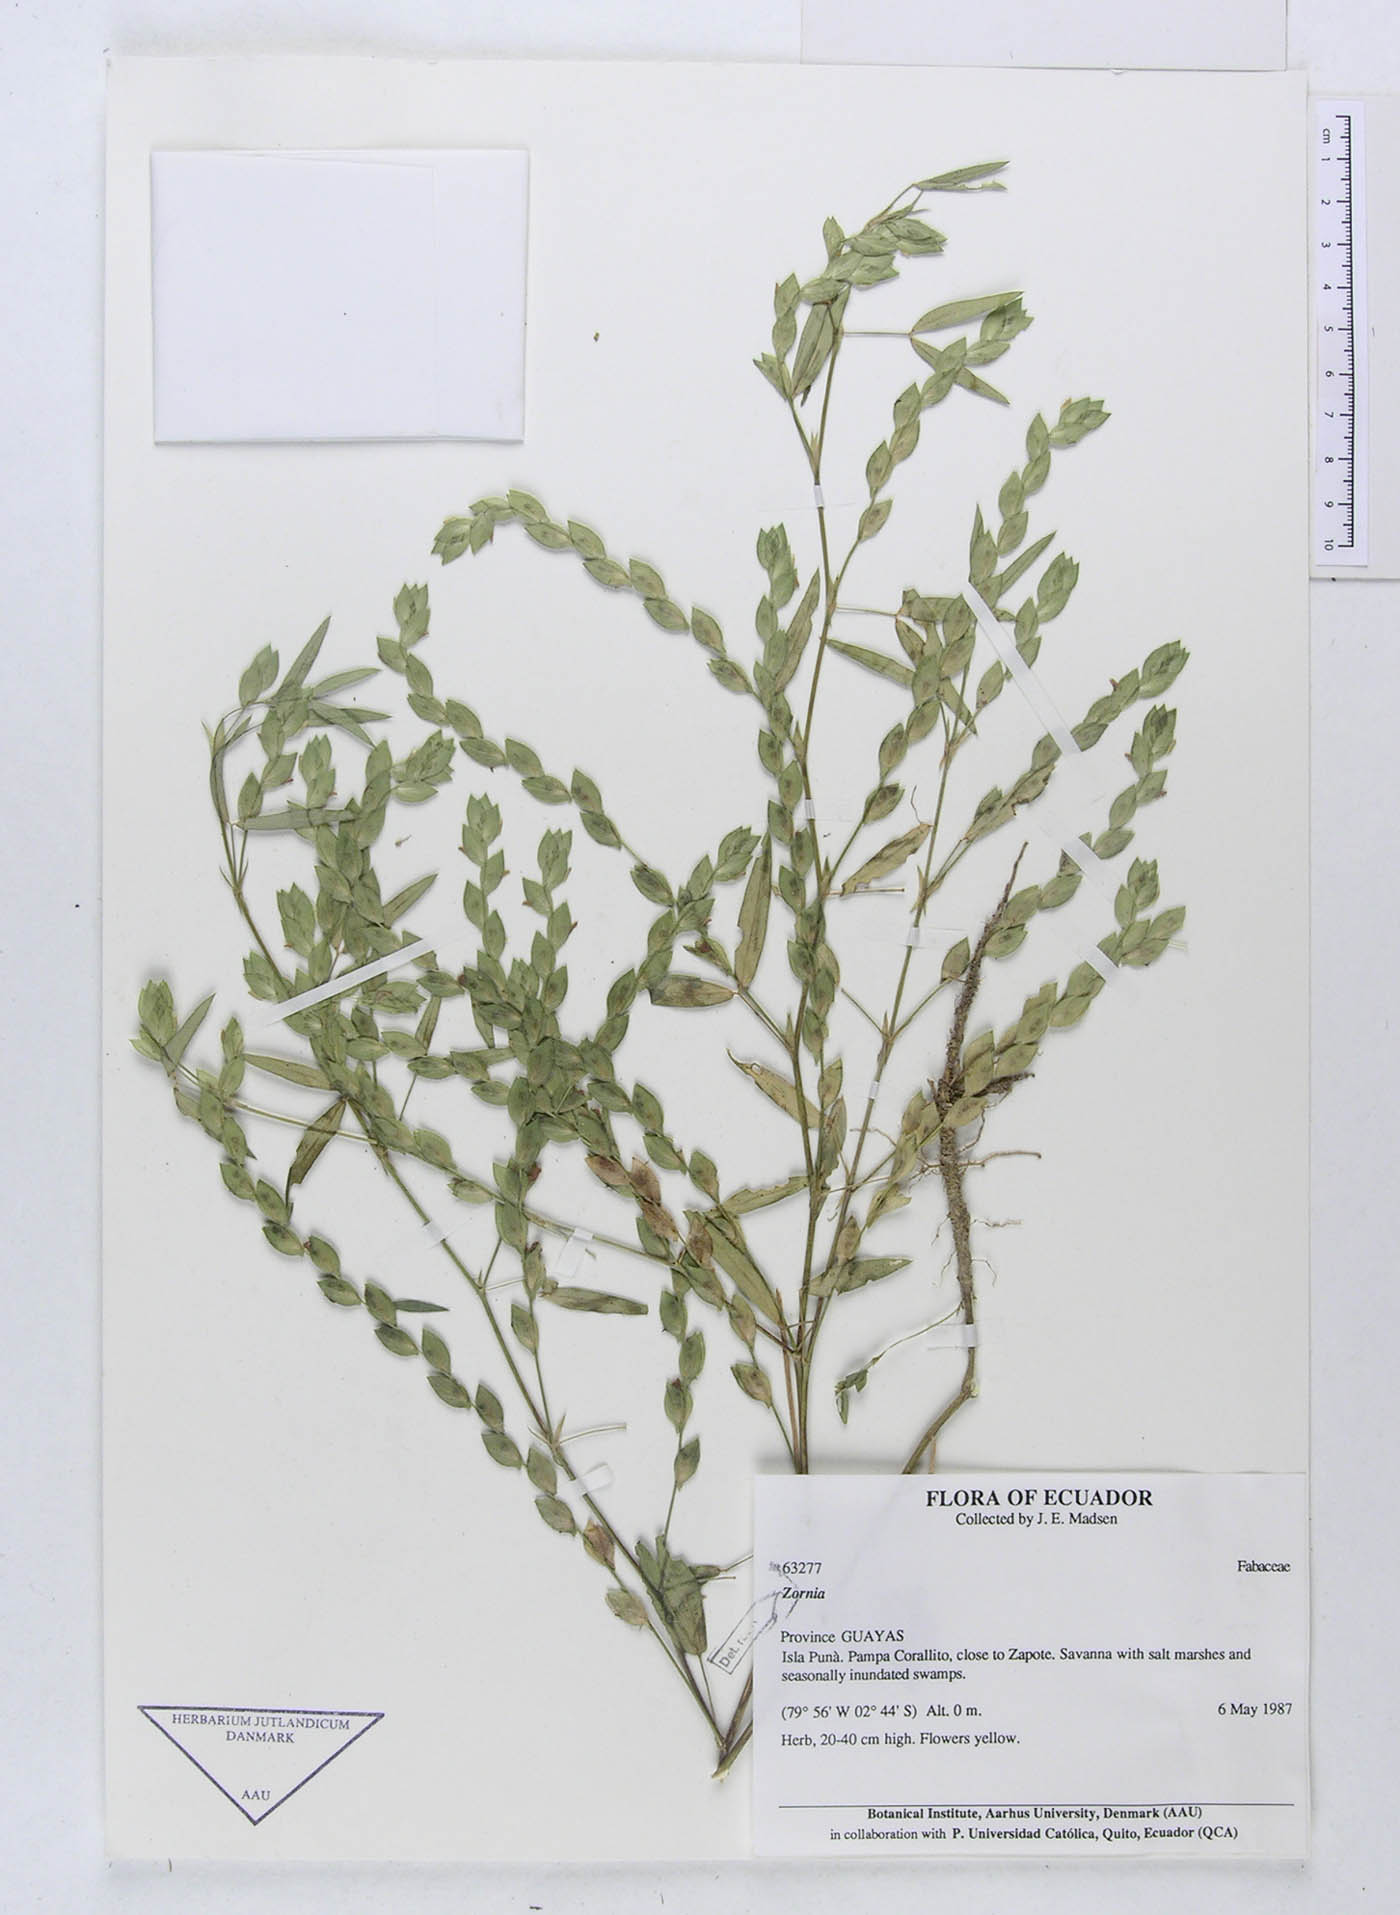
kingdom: Plantae
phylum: Tracheophyta
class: Magnoliopsida
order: Fabales
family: Fabaceae
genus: Zornia
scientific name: Zornia piurensis
